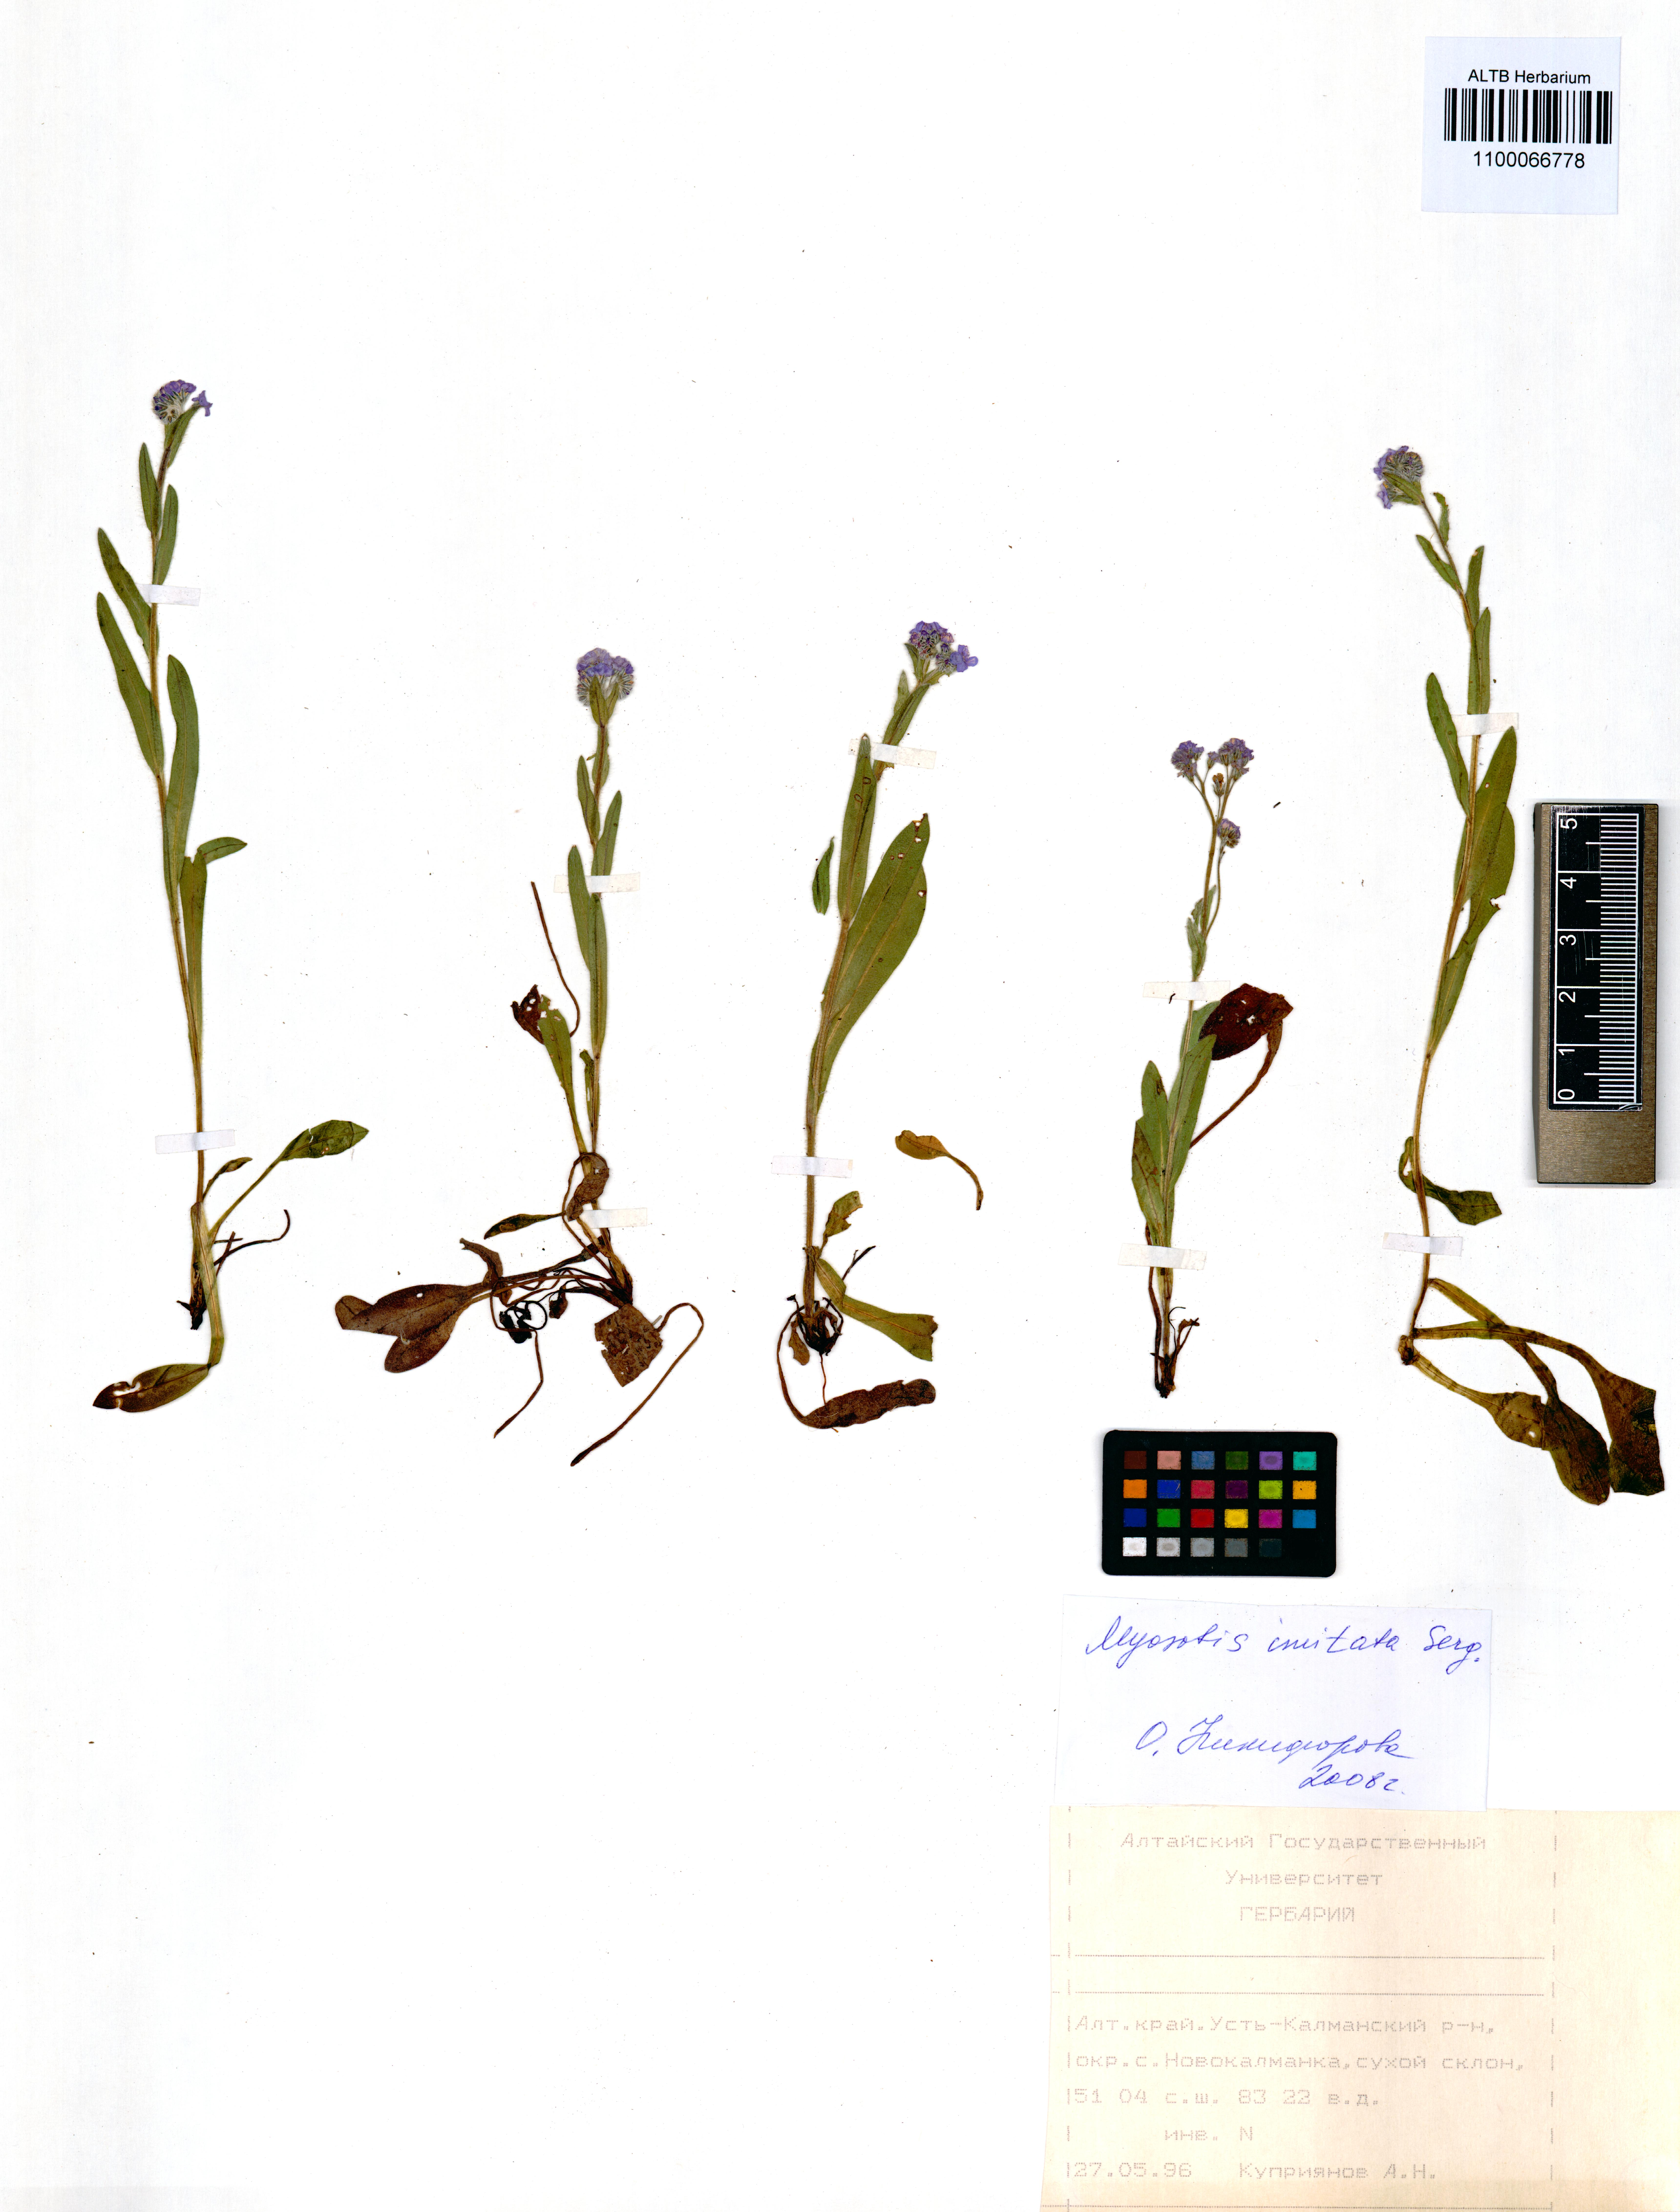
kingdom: Plantae
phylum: Tracheophyta
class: Magnoliopsida
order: Boraginales
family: Boraginaceae
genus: Myosotis
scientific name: Myosotis imitata
